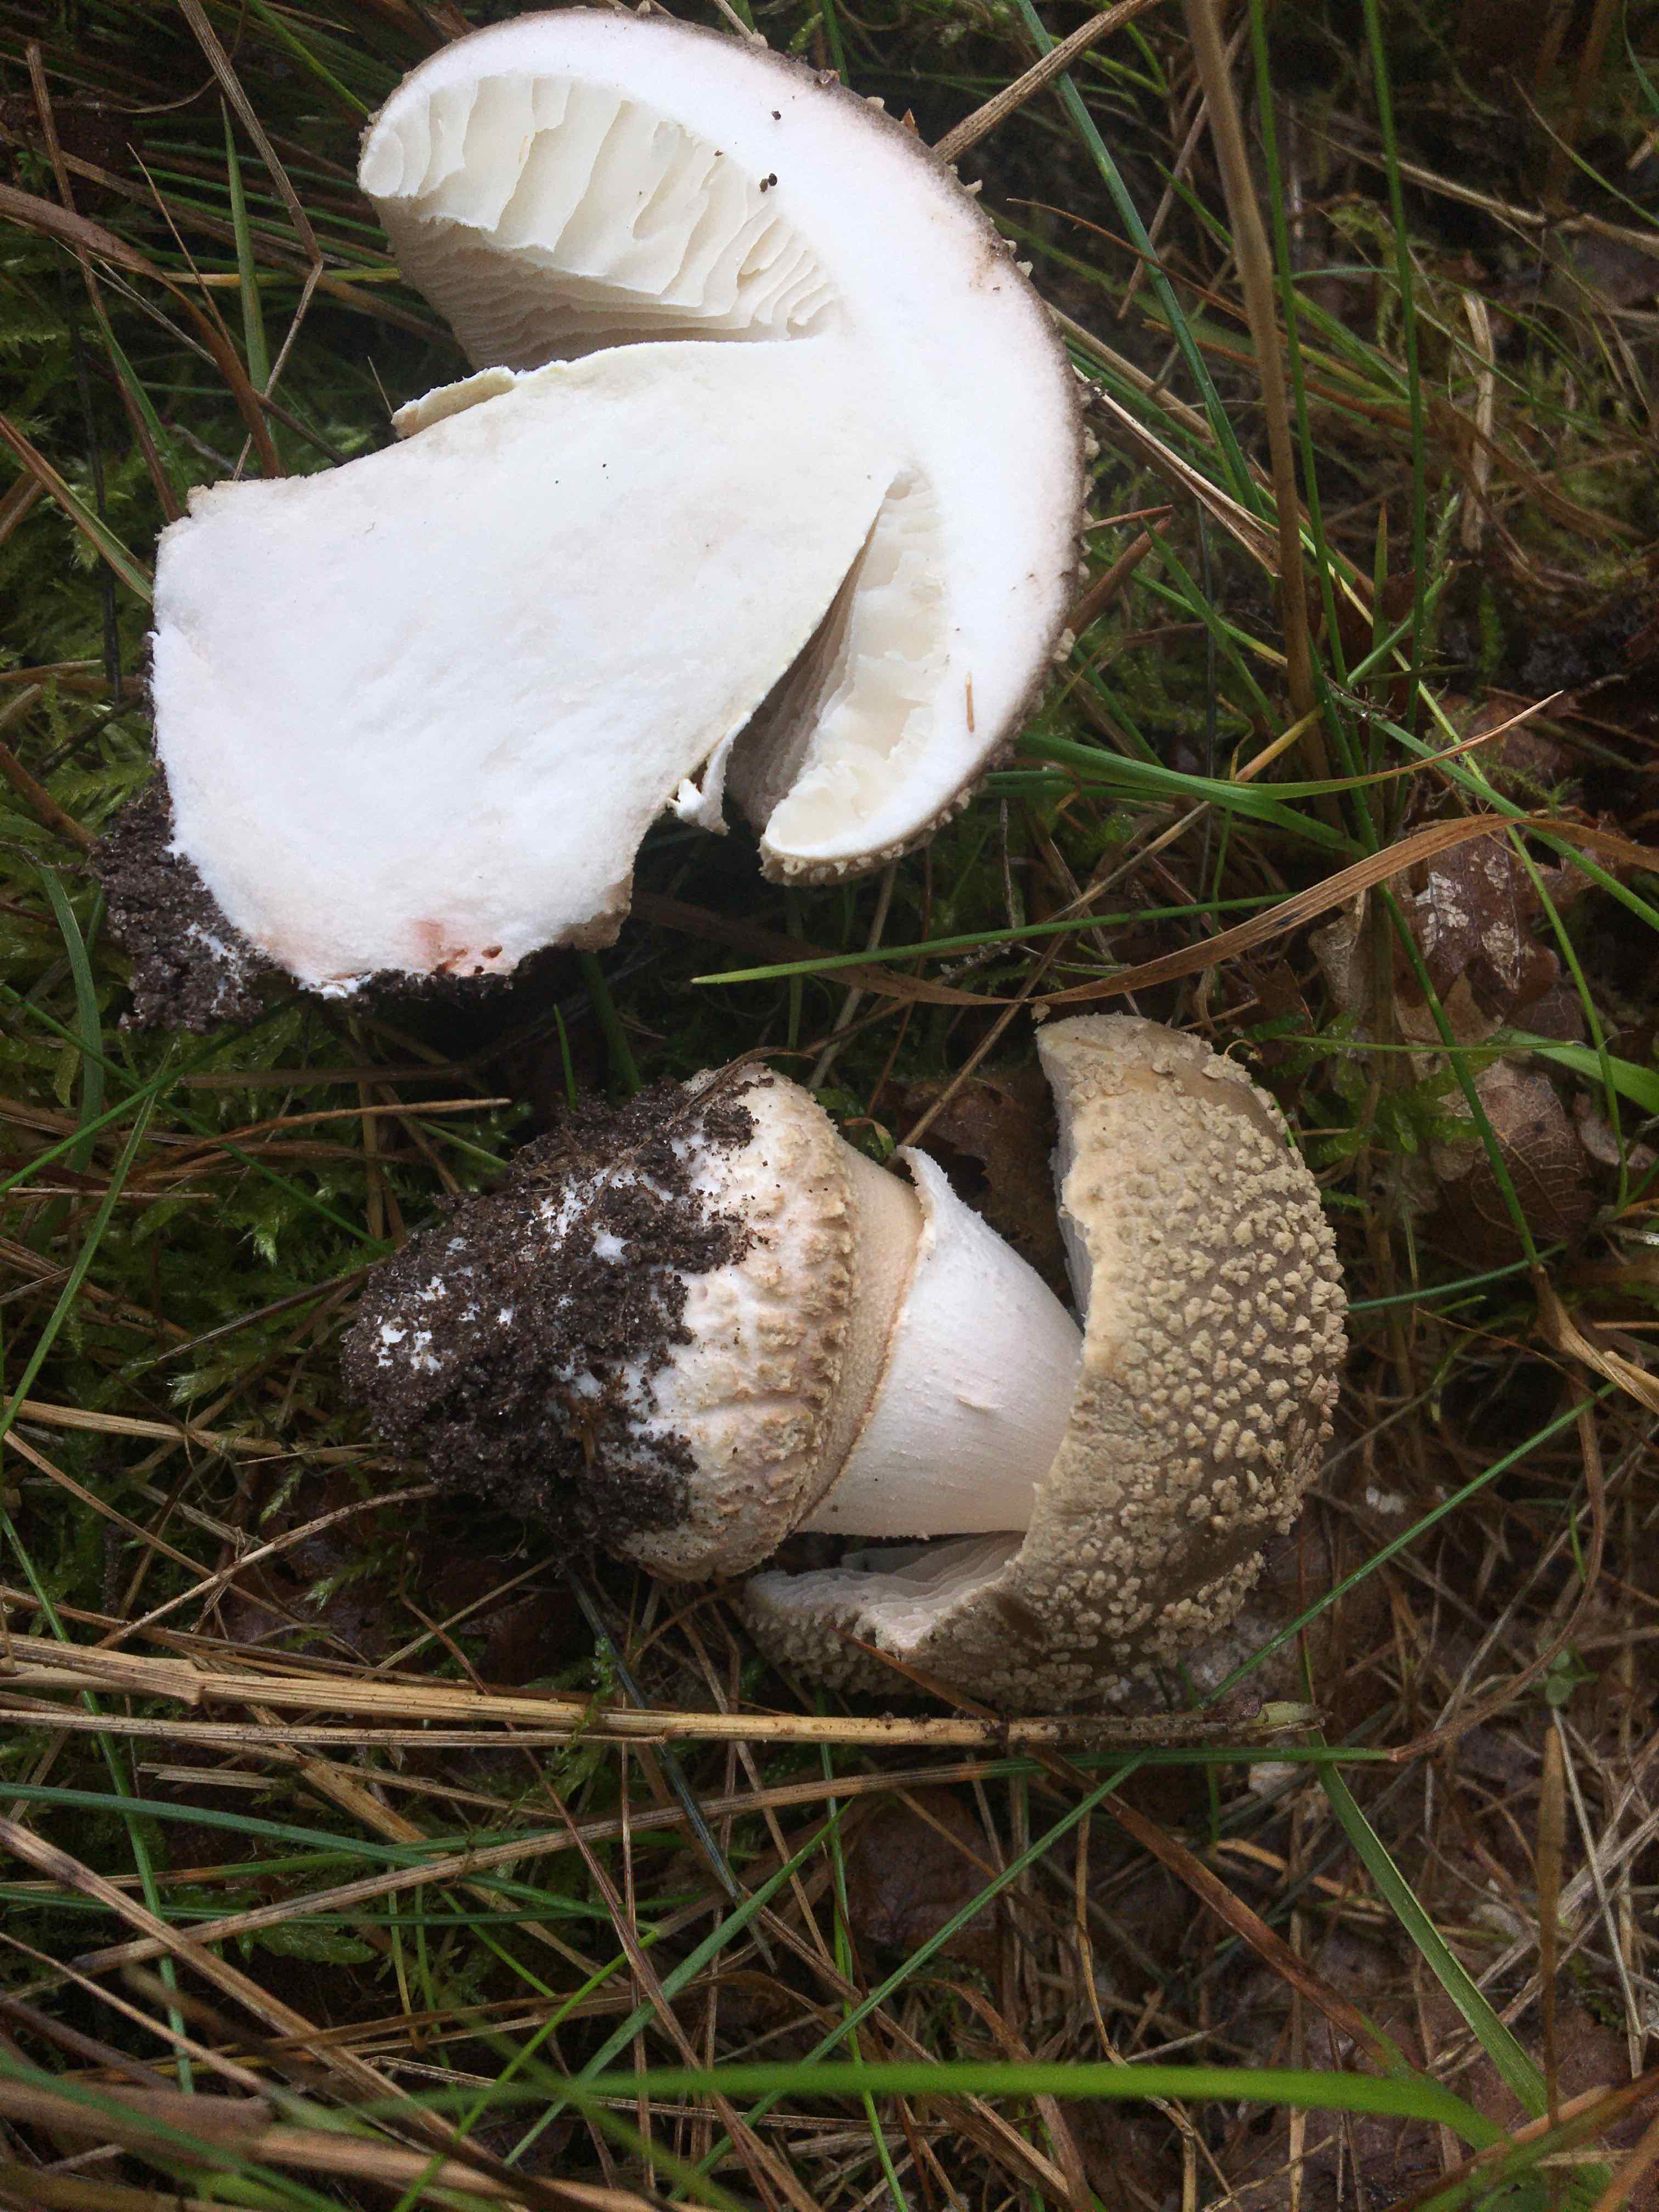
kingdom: Fungi
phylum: Basidiomycota
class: Agaricomycetes
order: Agaricales
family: Amanitaceae
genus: Amanita
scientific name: Amanita rubescens
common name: rødmende fluesvamp
